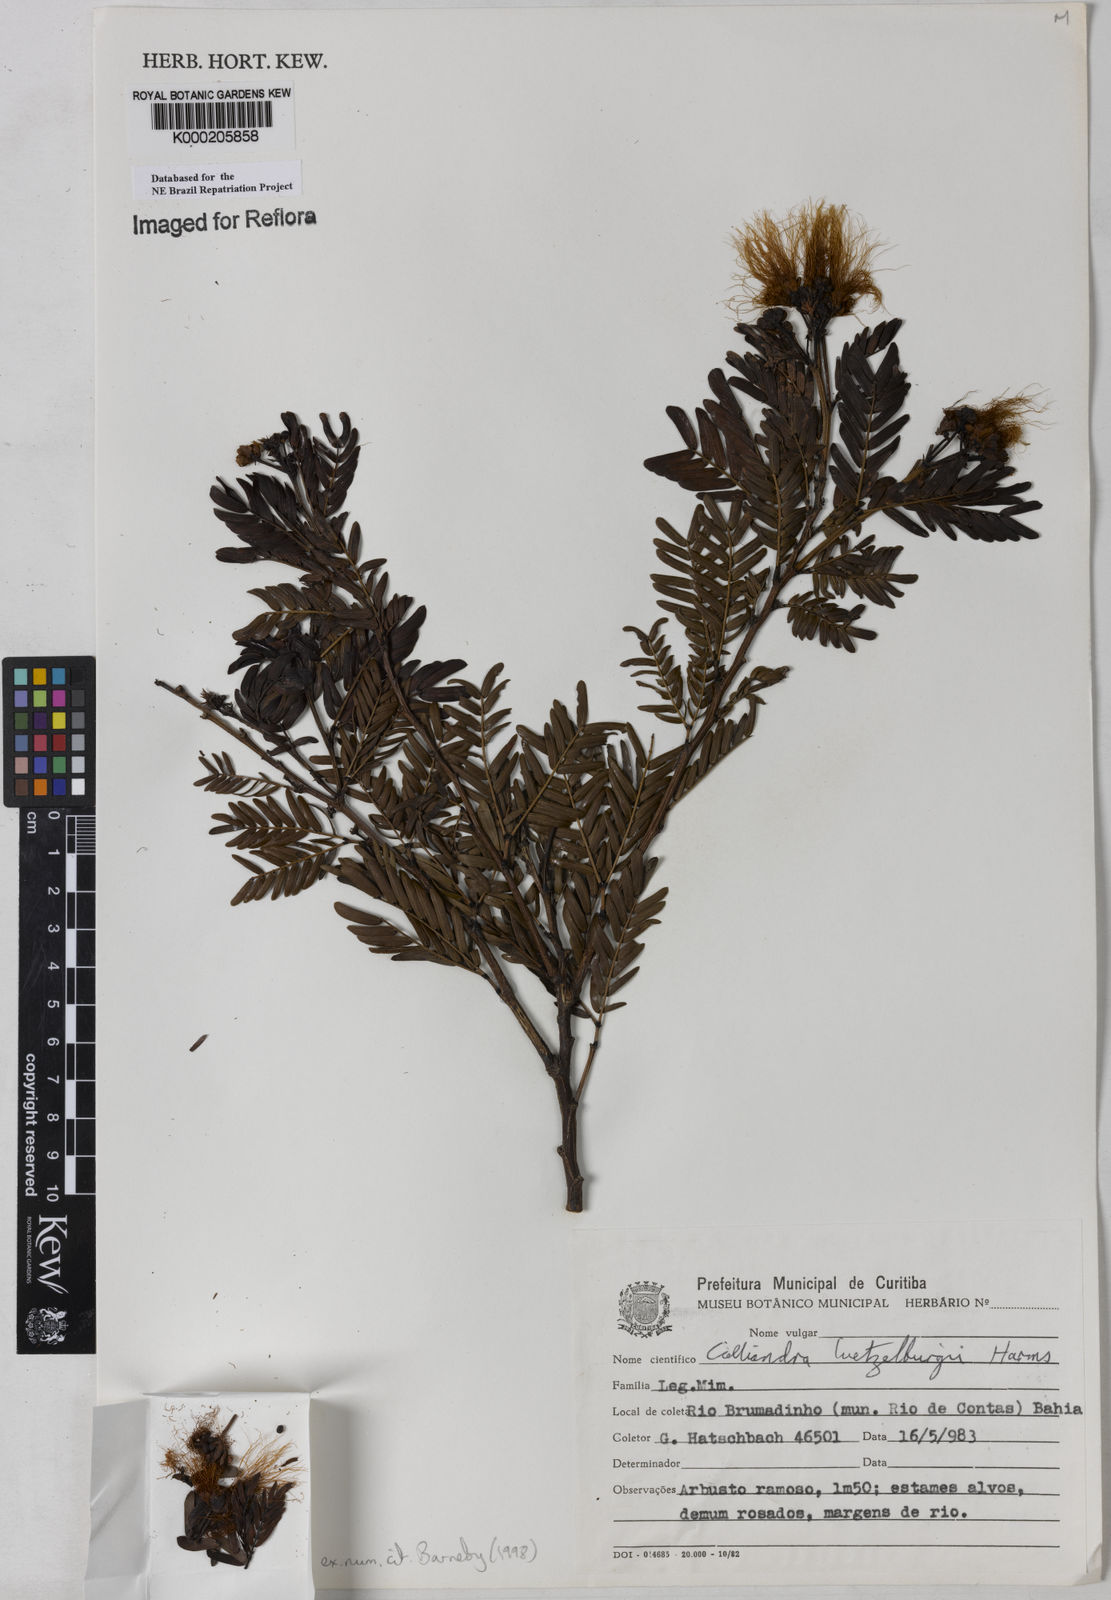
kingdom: Plantae
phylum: Tracheophyta
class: Magnoliopsida
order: Fabales
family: Fabaceae
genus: Calliandra
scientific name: Calliandra luetzelburgii
